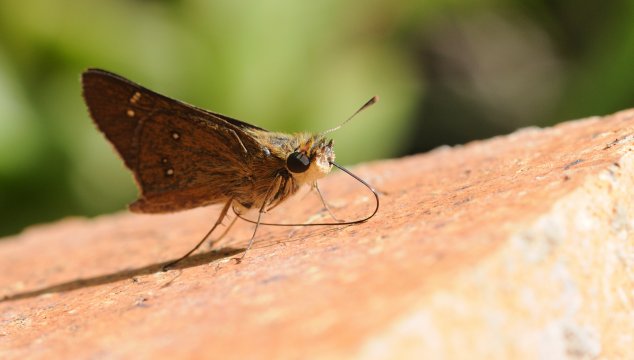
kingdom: Animalia
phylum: Arthropoda
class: Insecta
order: Lepidoptera
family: Hesperiidae
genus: Borbo
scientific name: Borbo borbonica
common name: Zeller's Skipper
